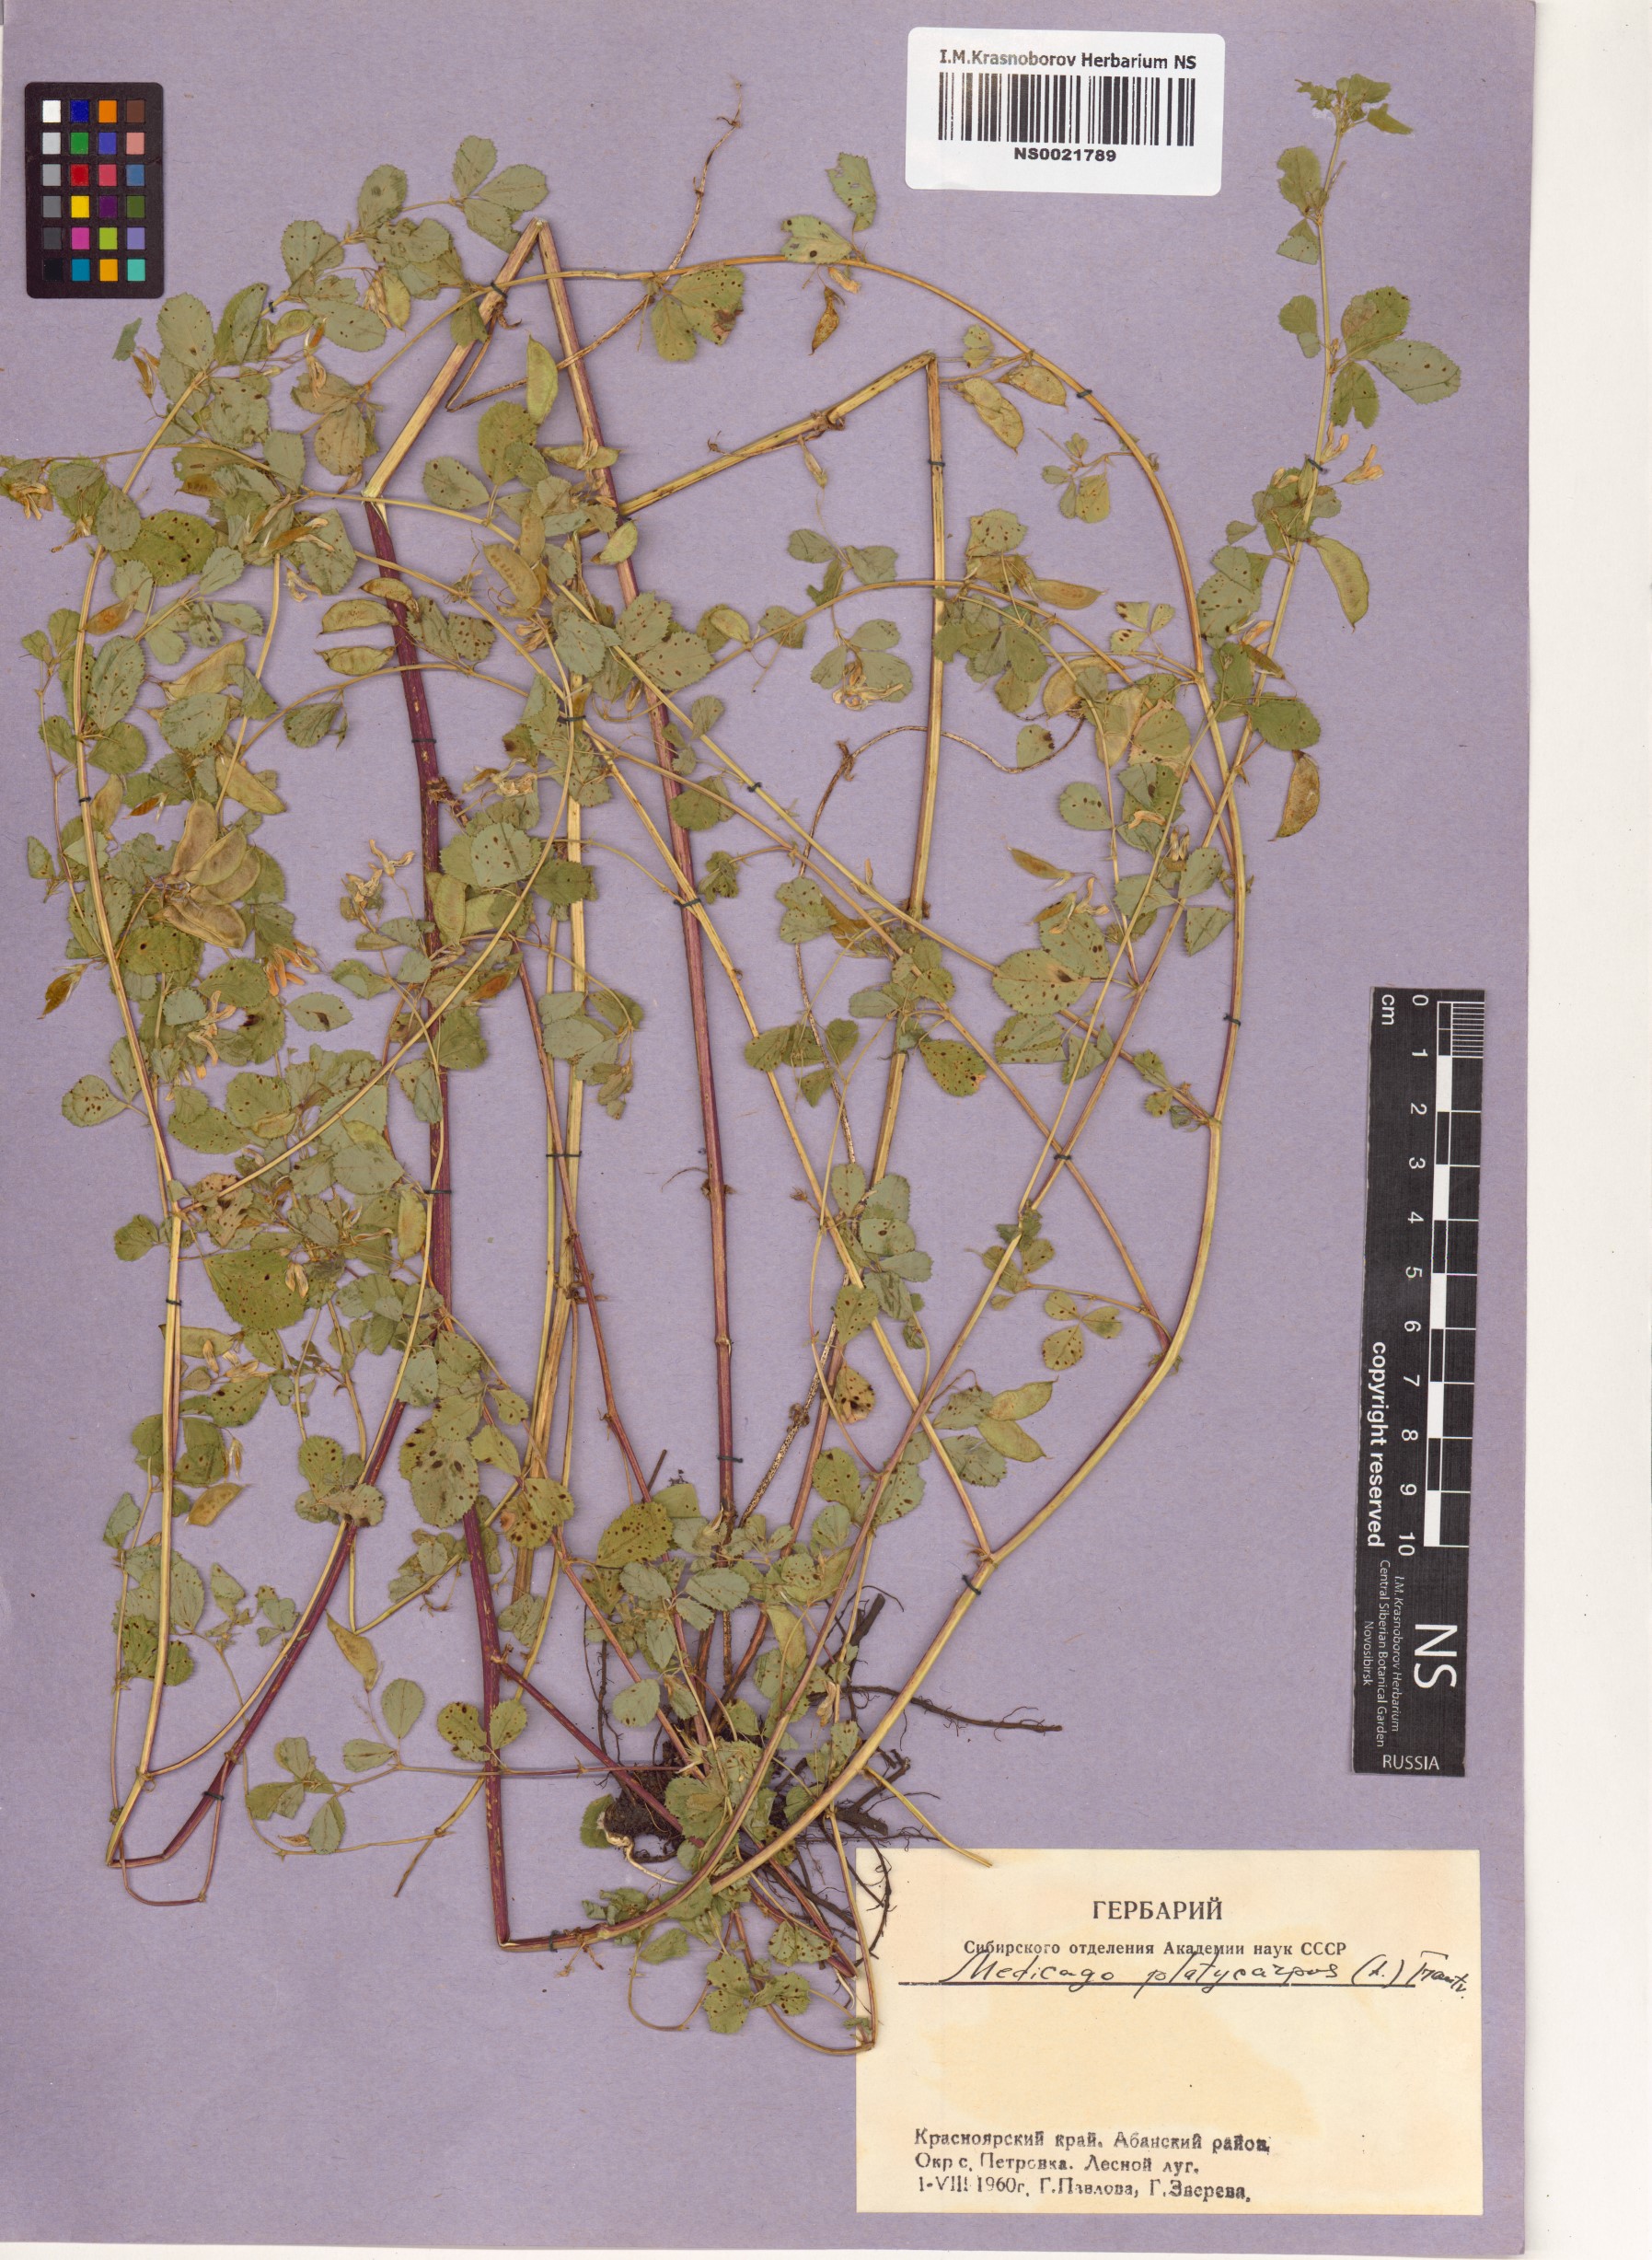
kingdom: Plantae
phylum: Tracheophyta
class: Magnoliopsida
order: Fabales
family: Fabaceae
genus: Medicago
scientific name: Medicago platycarpos
